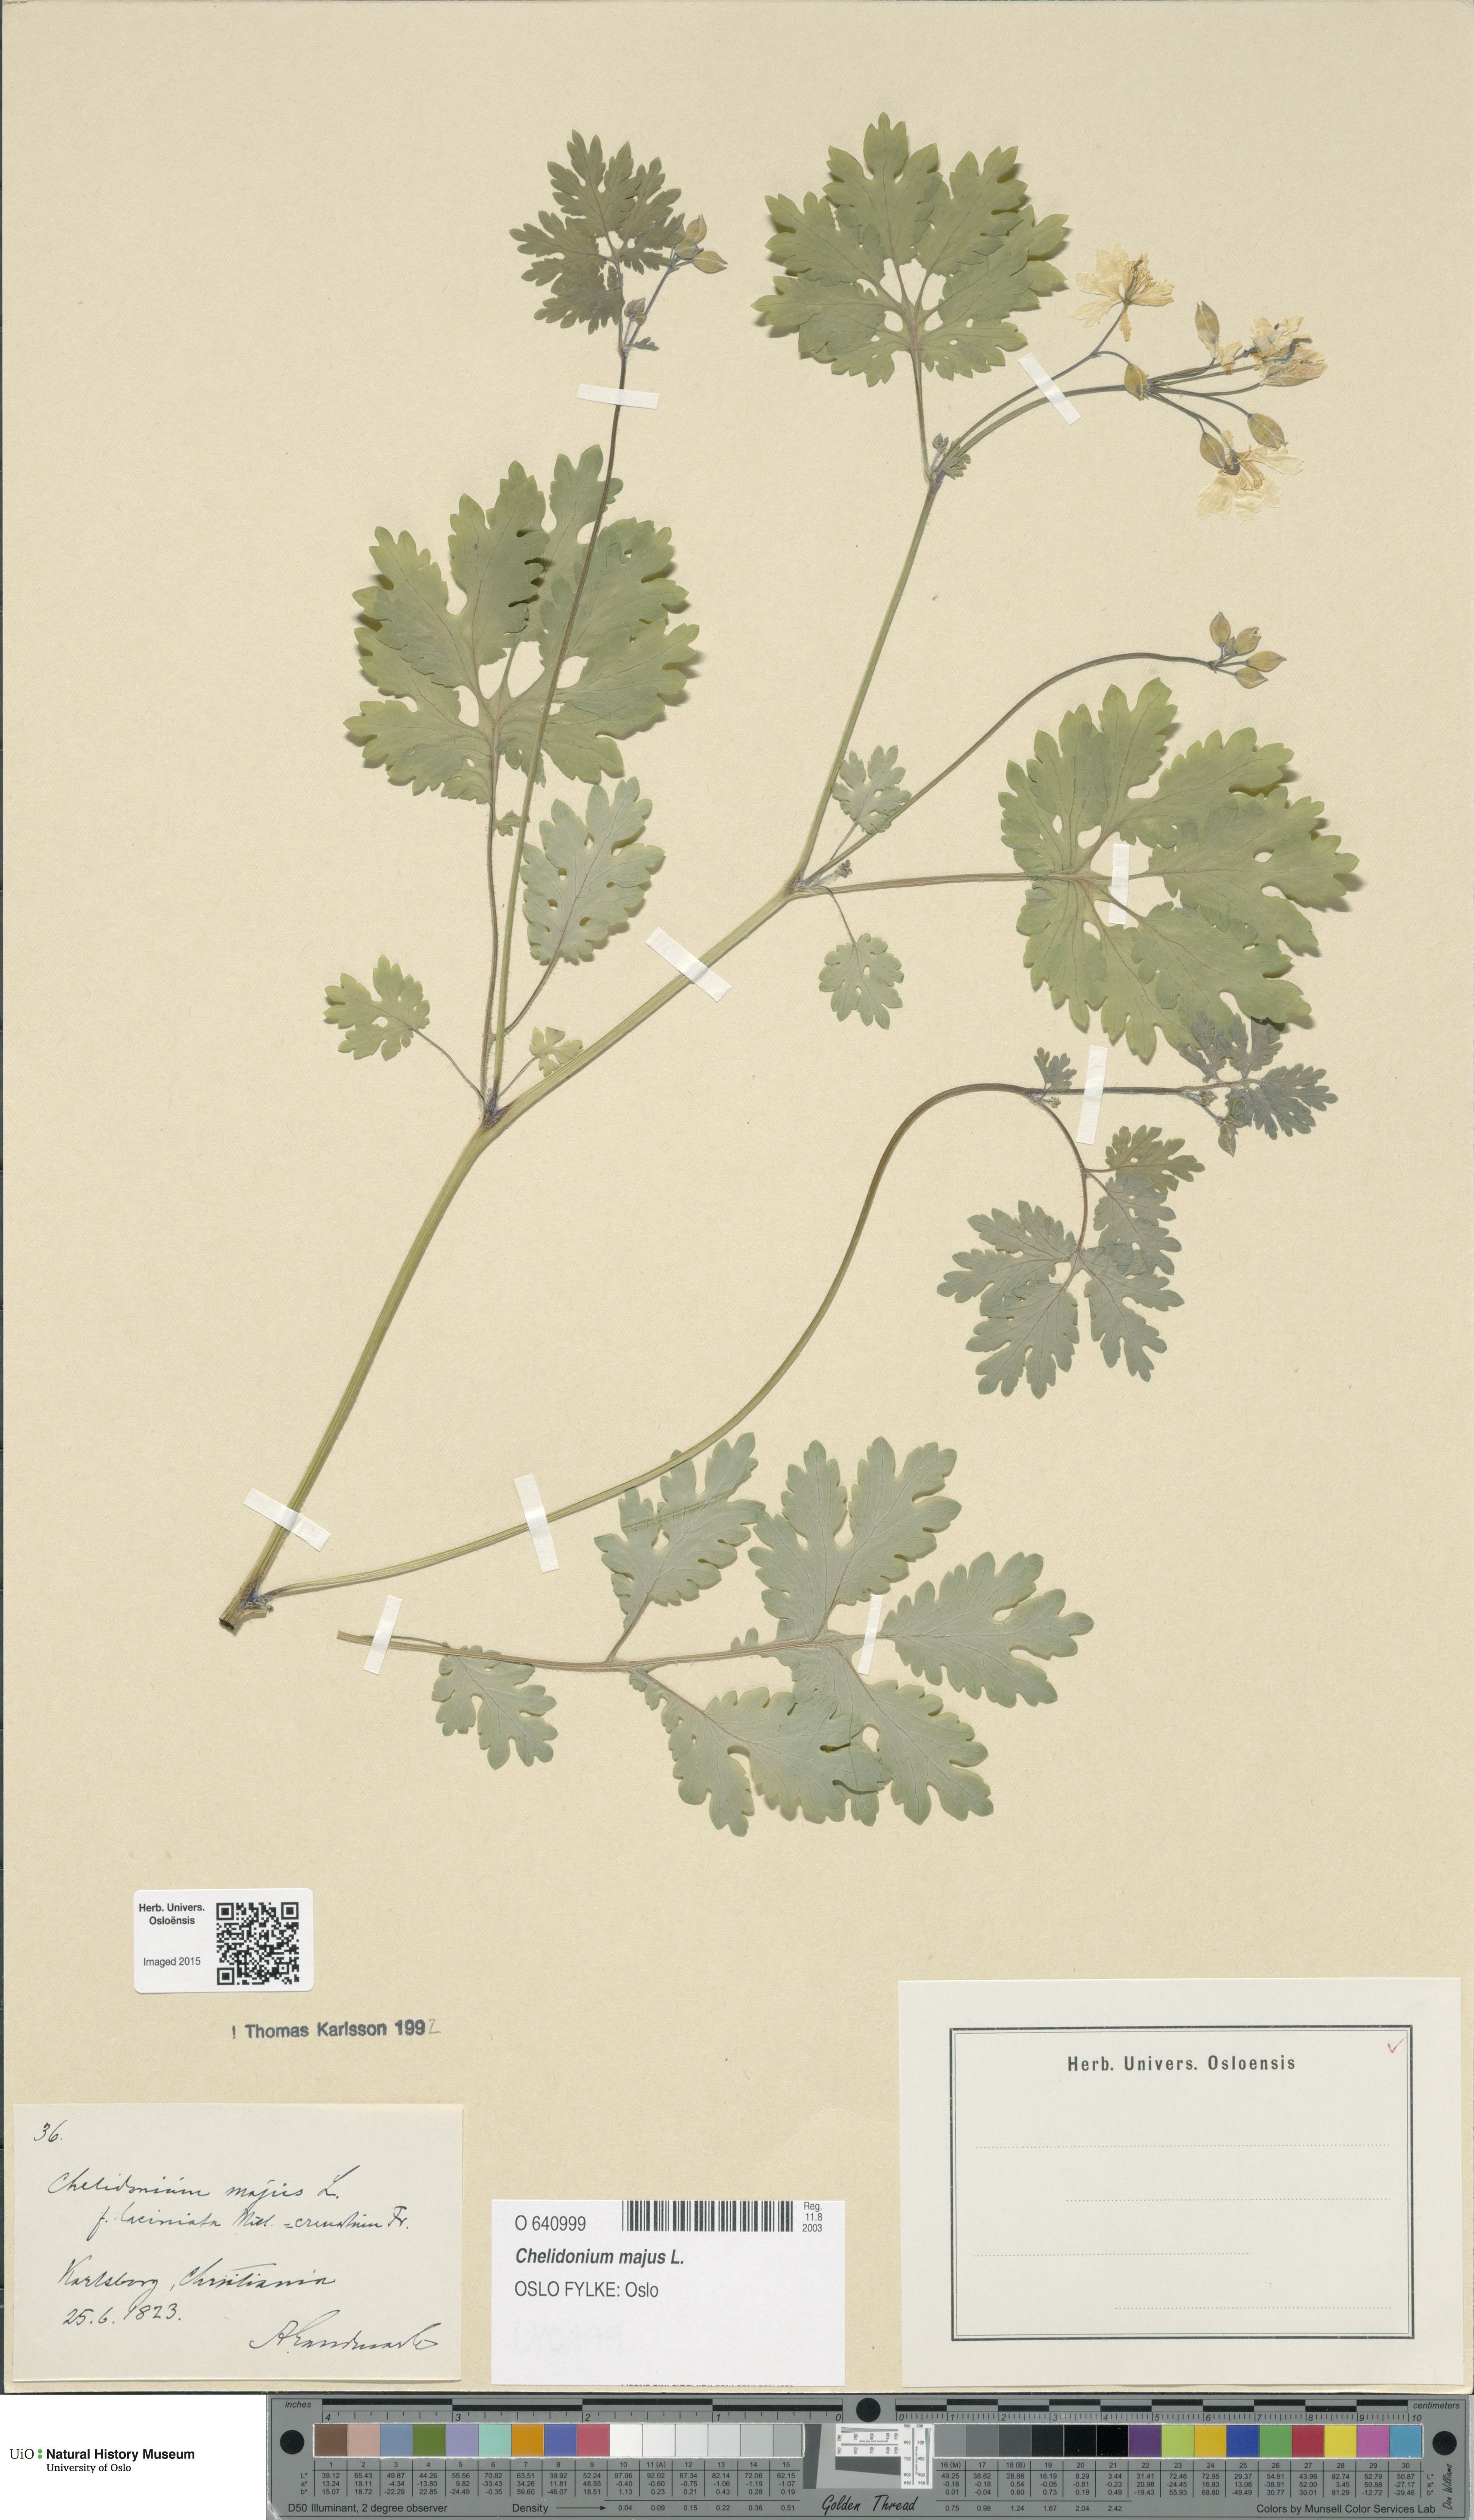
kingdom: Plantae
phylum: Tracheophyta
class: Magnoliopsida
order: Ranunculales
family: Papaveraceae
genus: Chelidonium
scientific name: Chelidonium majus
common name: Greater celandine
